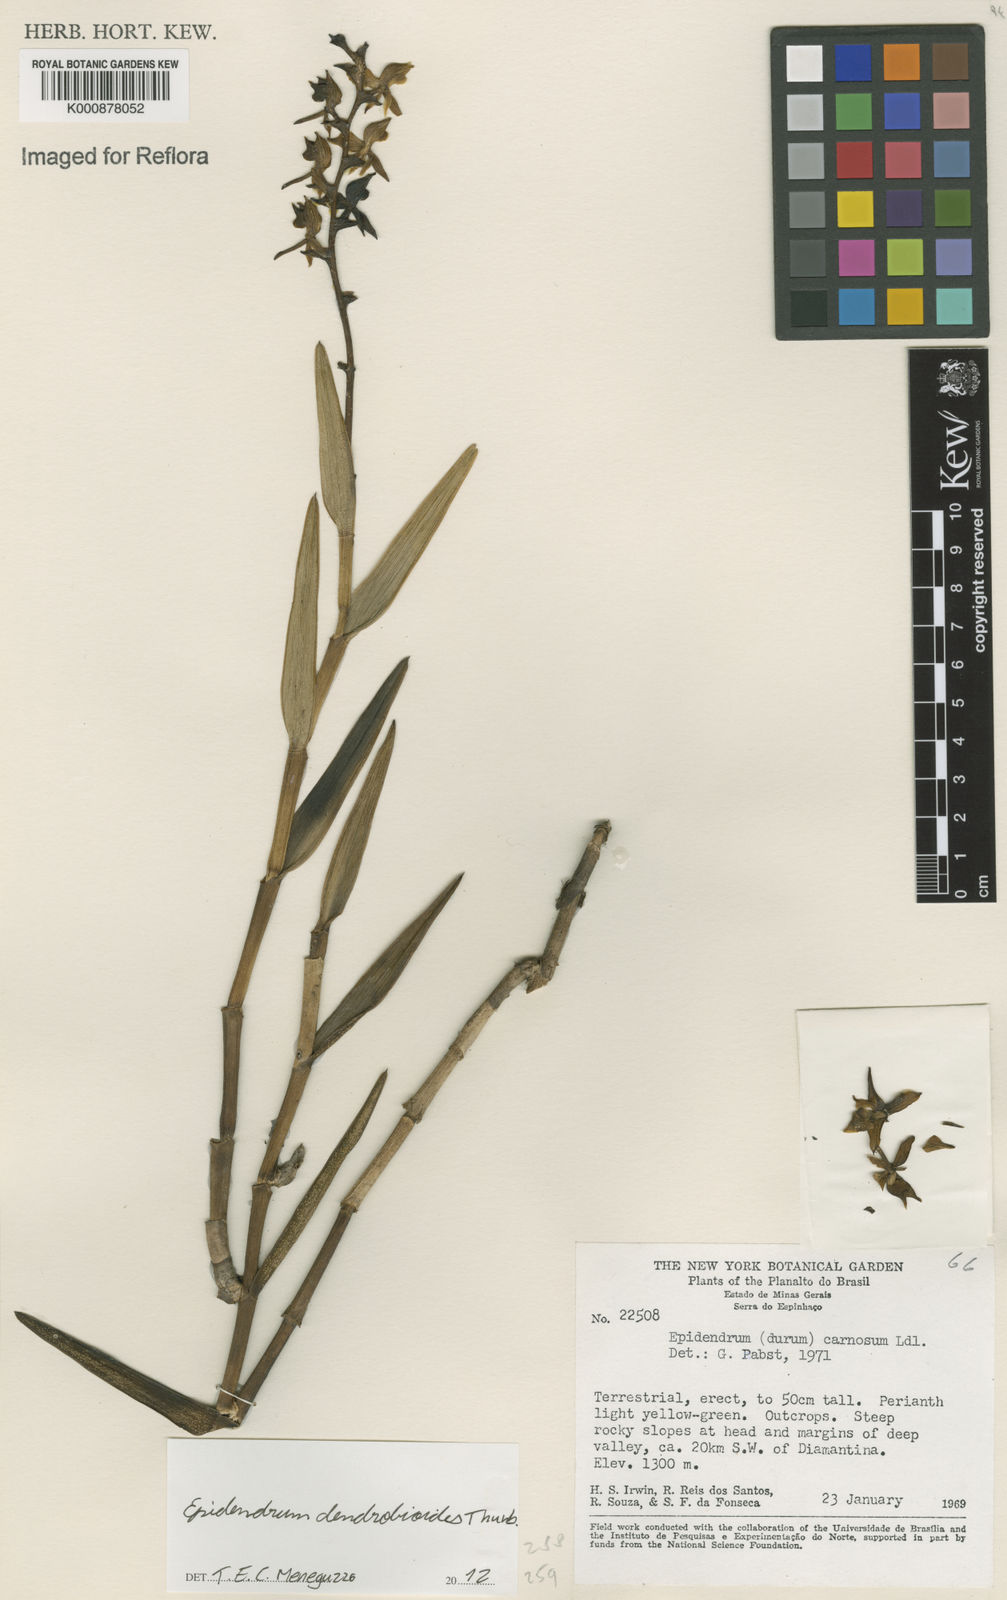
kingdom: Plantae
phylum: Tracheophyta
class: Liliopsida
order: Asparagales
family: Orchidaceae
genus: Epidendrum
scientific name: Epidendrum dendrobioides
